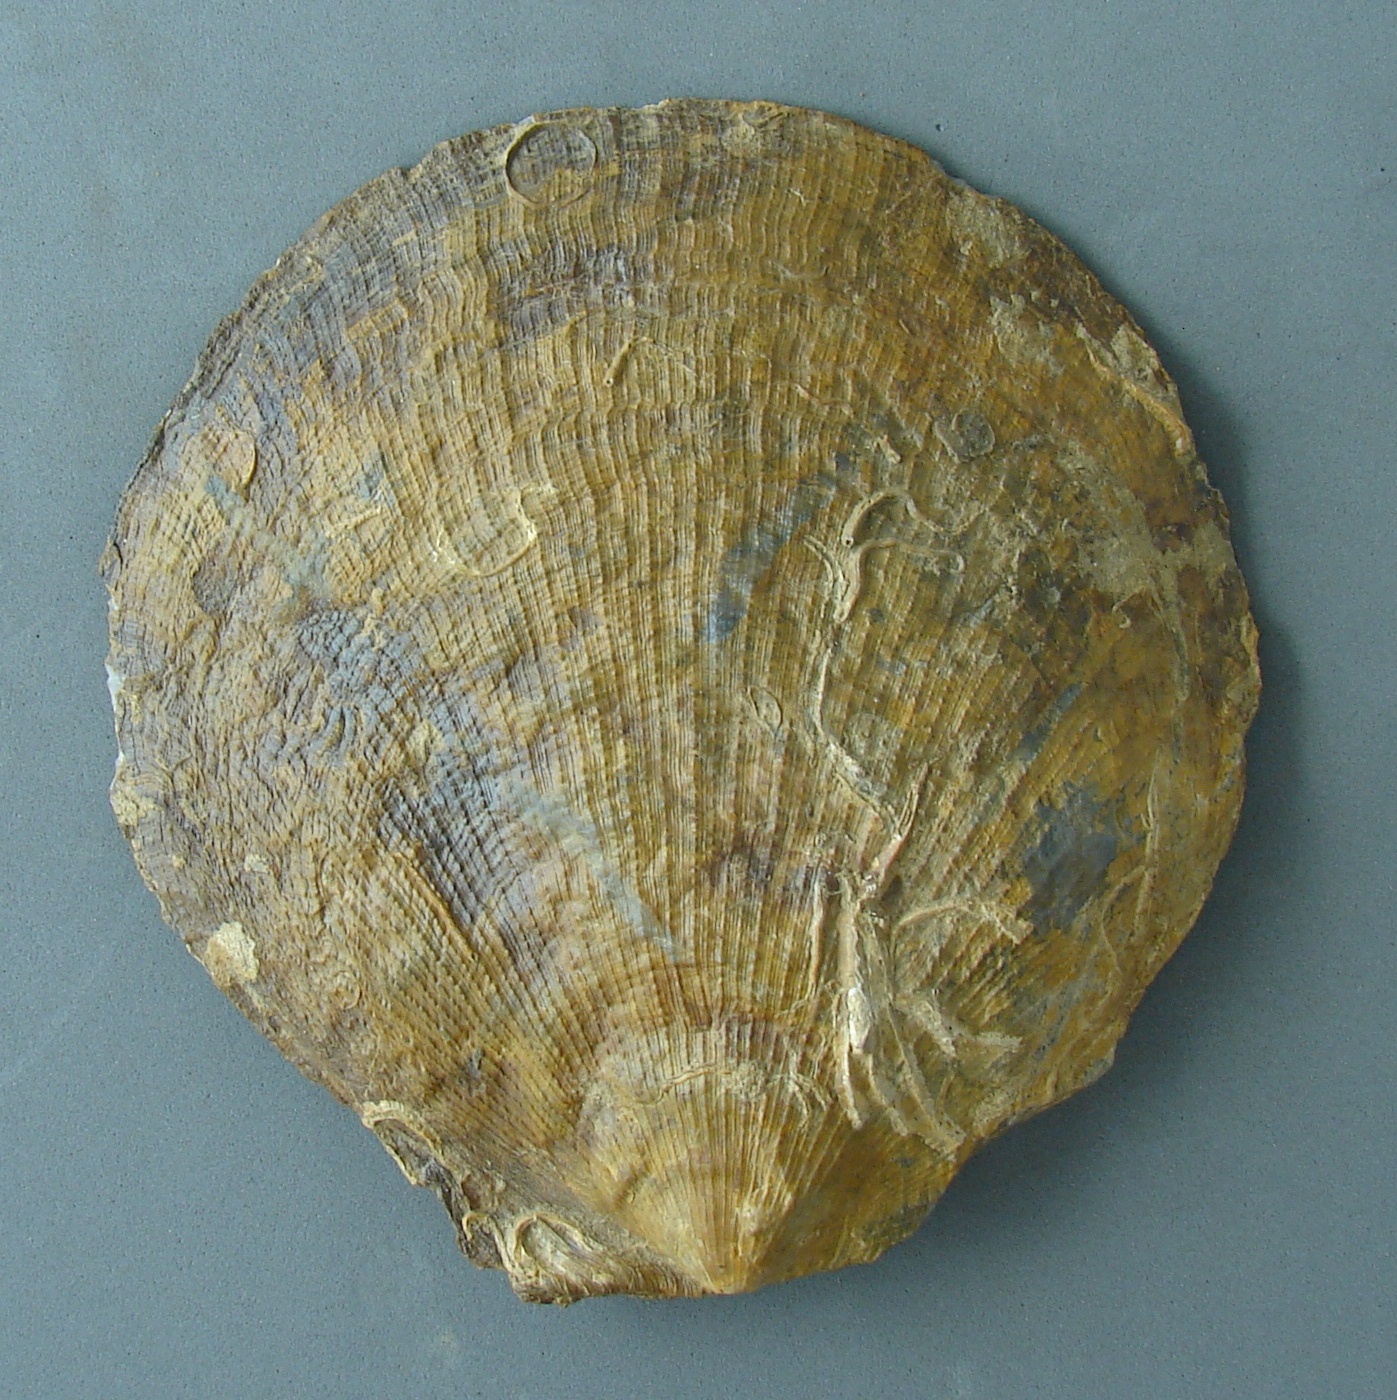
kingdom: Animalia
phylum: Mollusca
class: Bivalvia
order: Pectinida
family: Pectinidae
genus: Eopecten
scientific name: Eopecten abjectus
